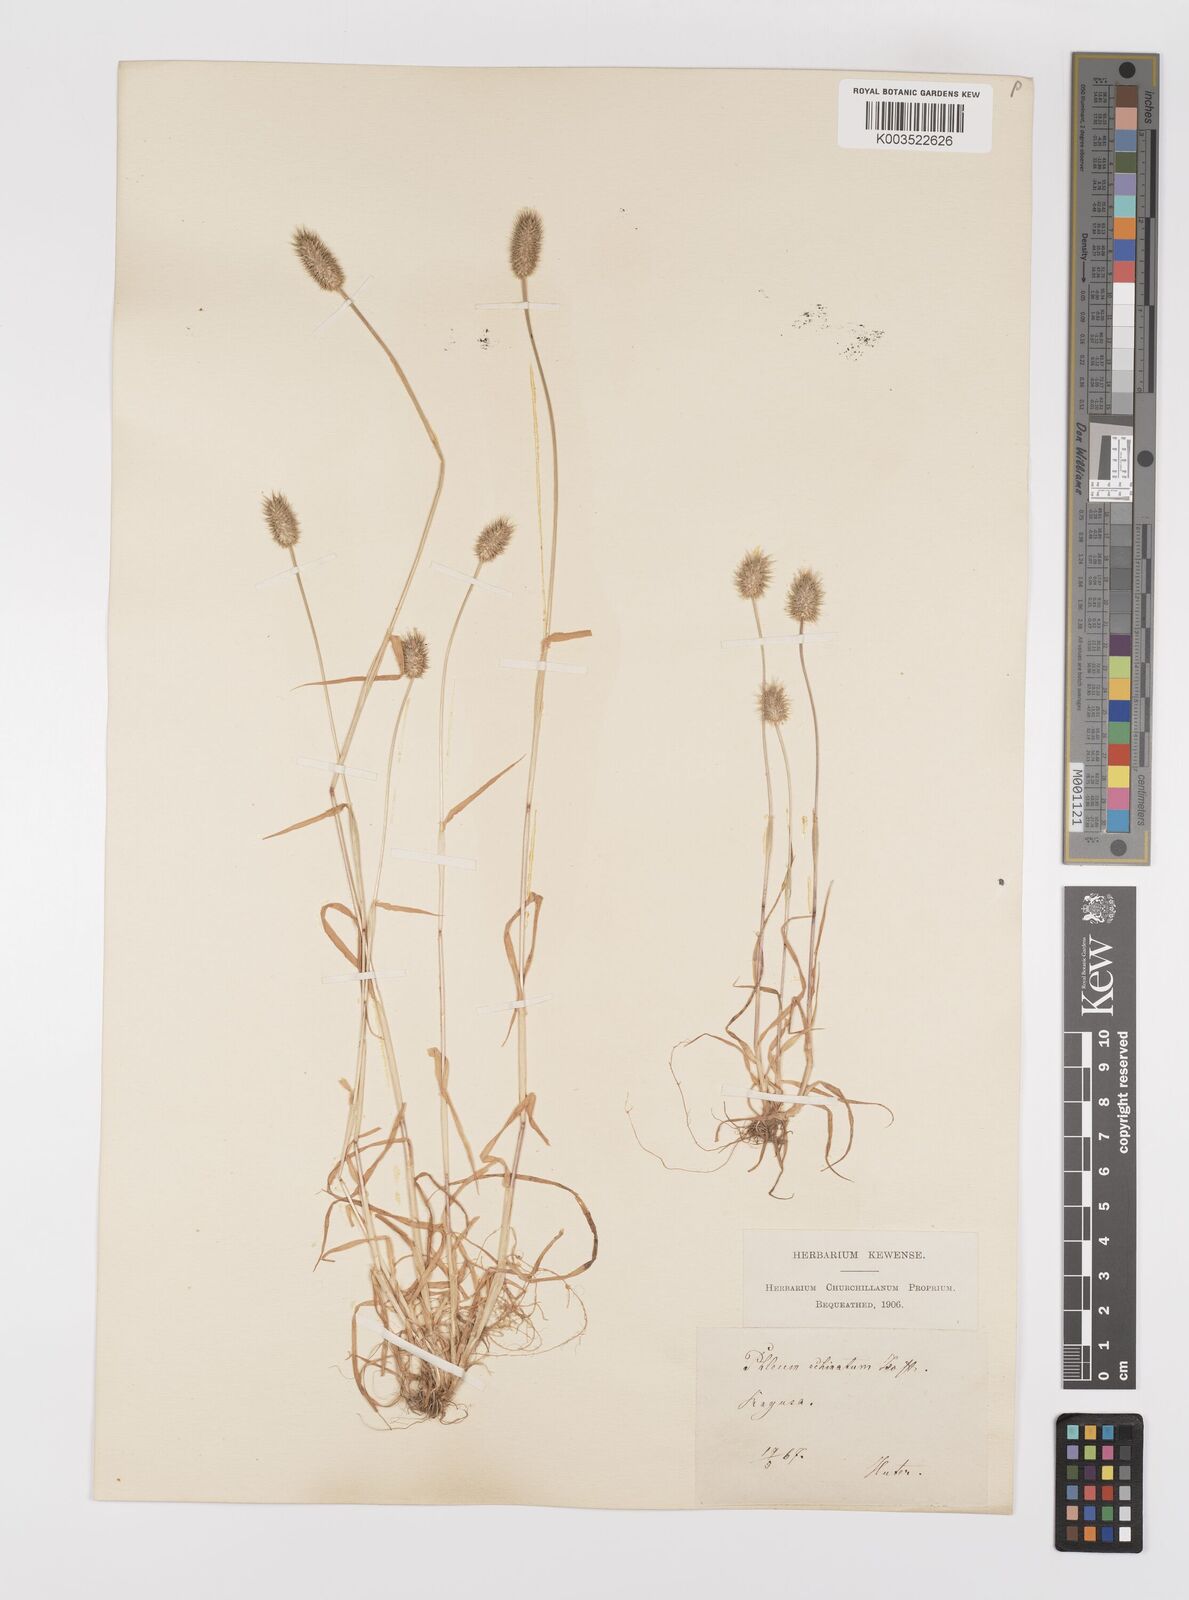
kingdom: Plantae
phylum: Tracheophyta
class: Liliopsida
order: Poales
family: Poaceae
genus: Phleum
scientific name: Phleum echinatum
